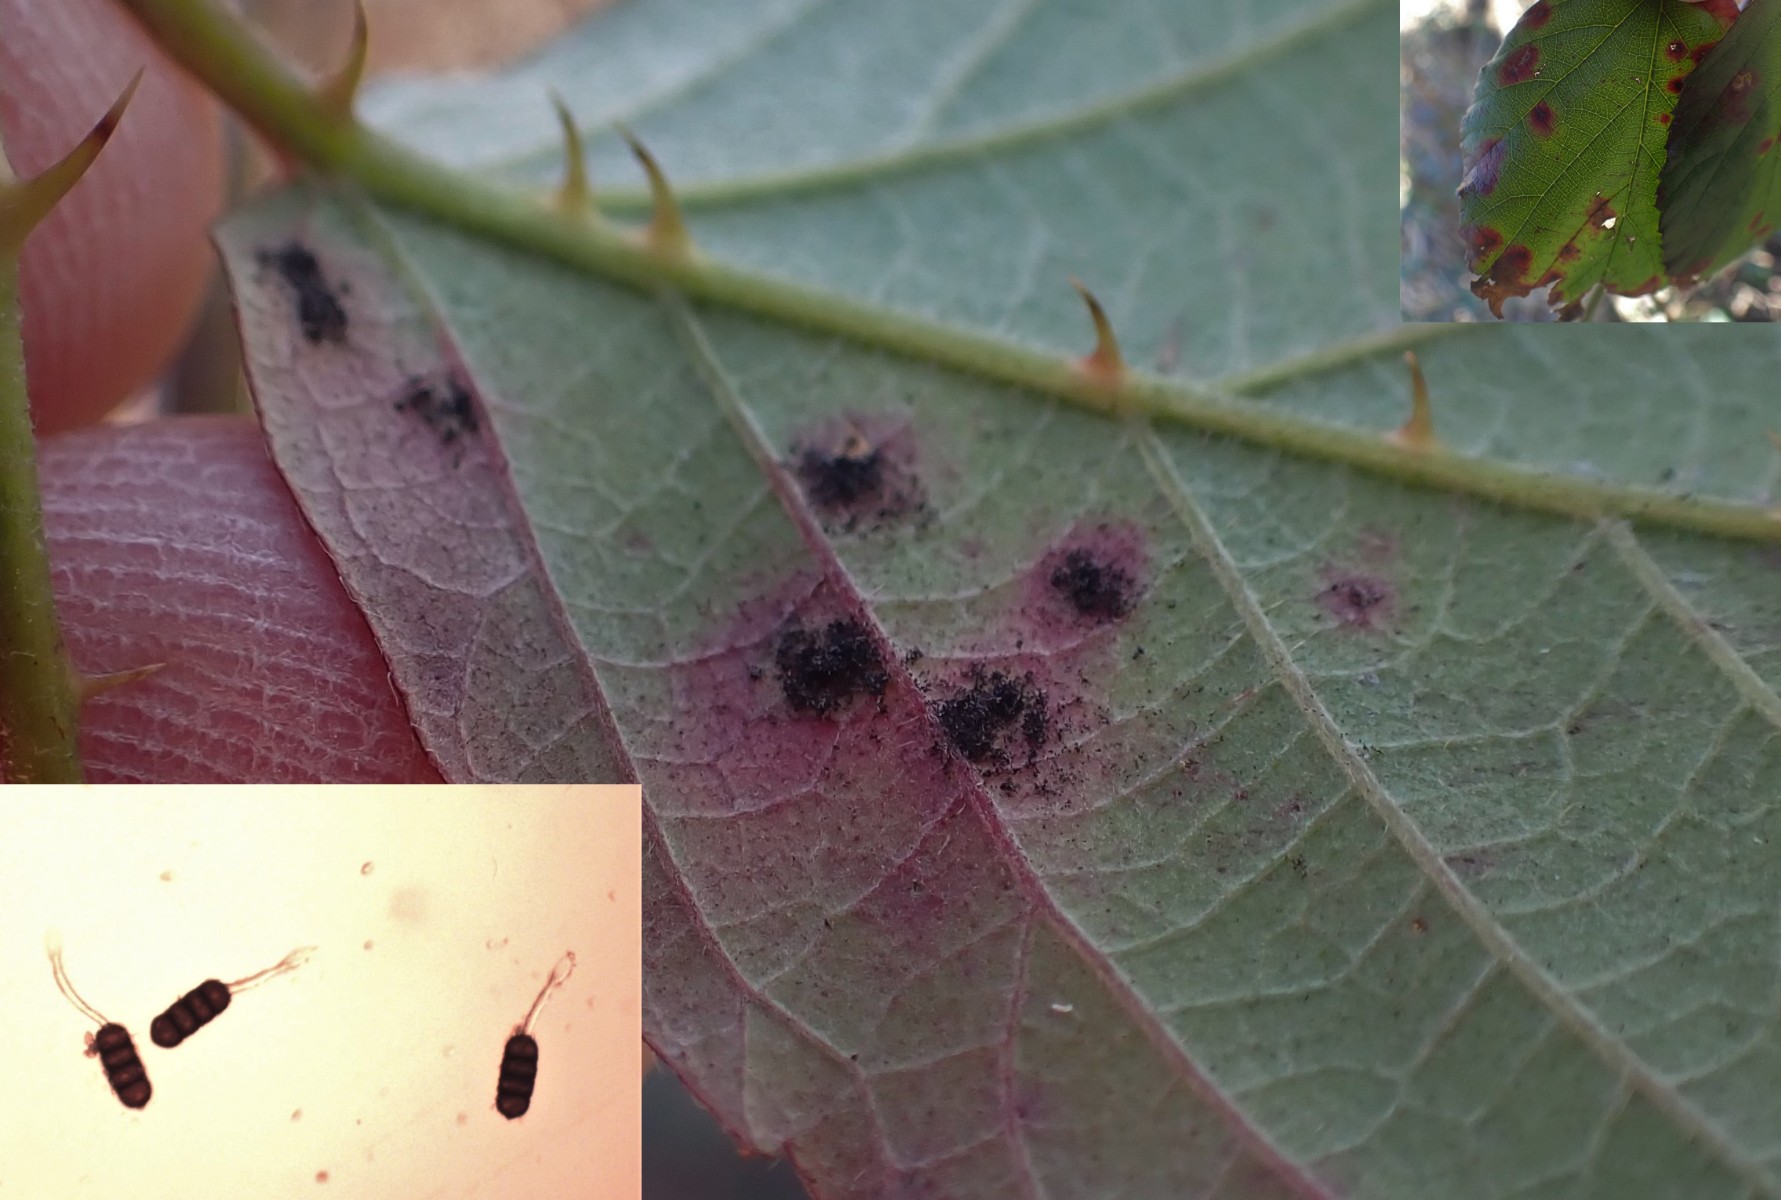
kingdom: Fungi
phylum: Basidiomycota
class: Pucciniomycetes
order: Pucciniales
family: Phragmidiaceae
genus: Phragmidium
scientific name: Phragmidium violaceum
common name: violet flercellerust
